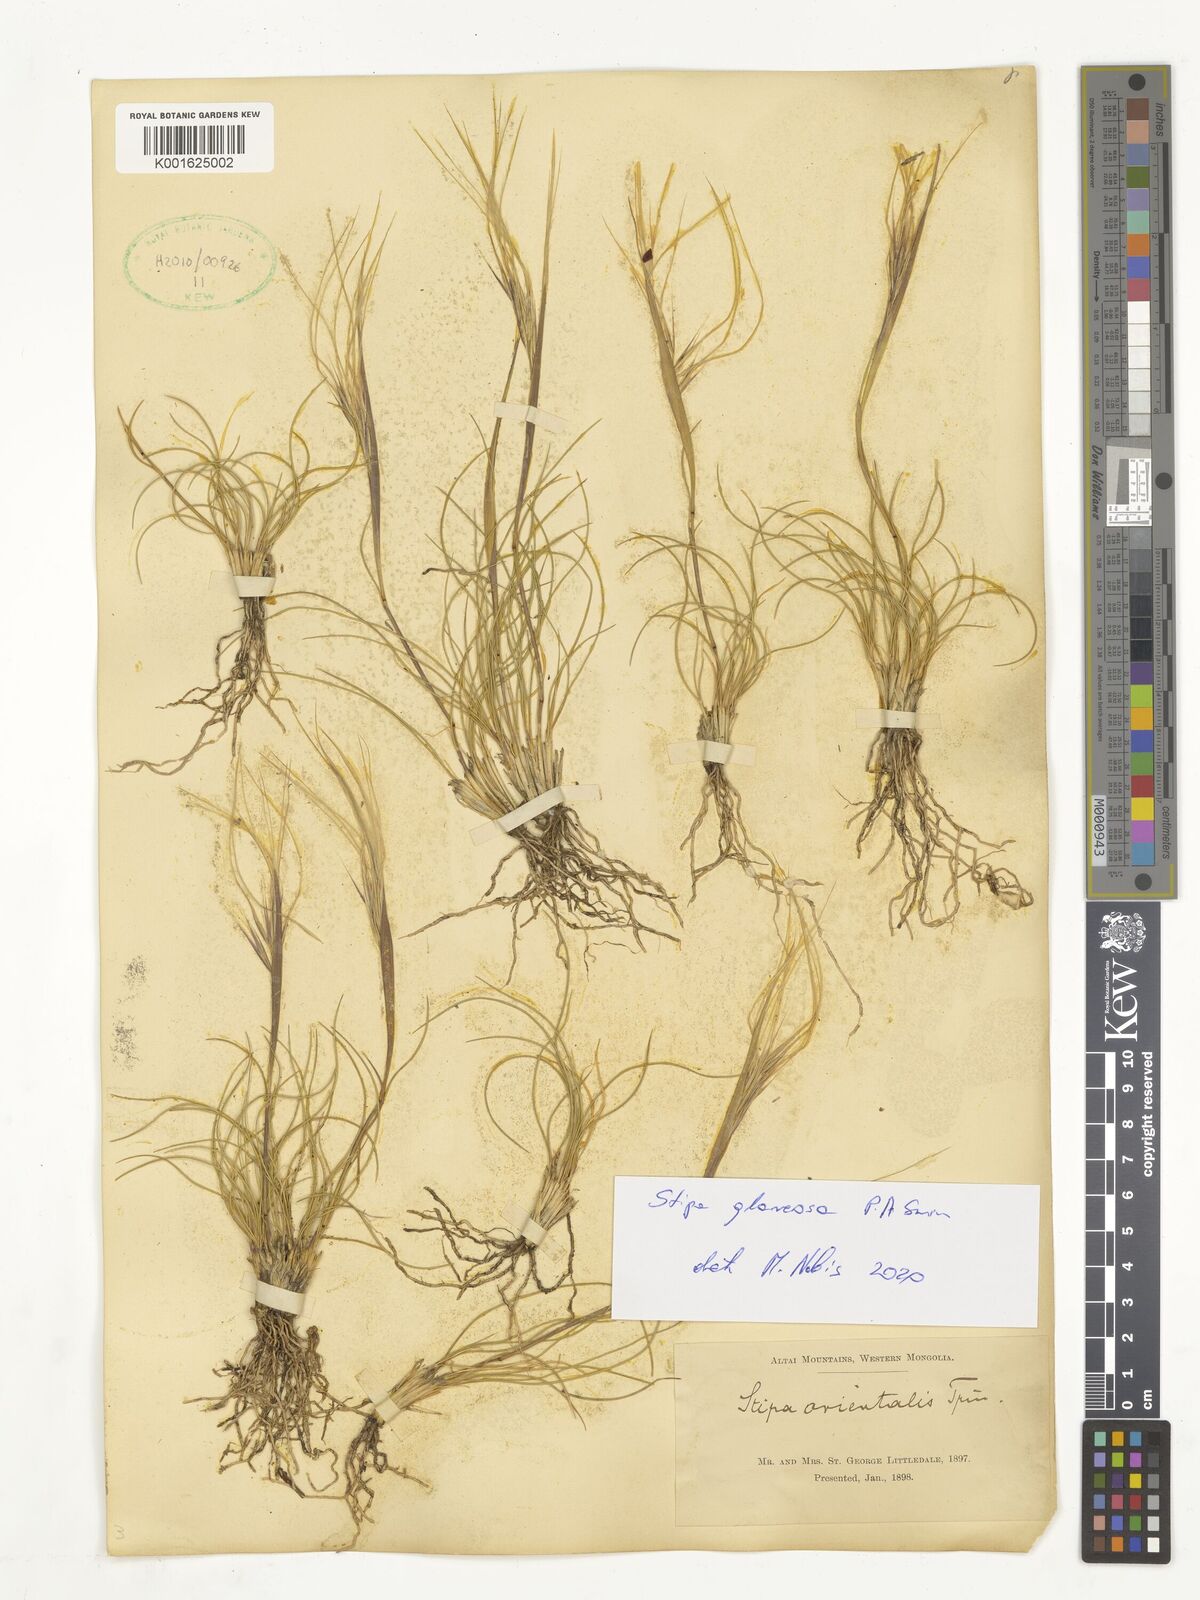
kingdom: Plantae
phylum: Tracheophyta
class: Liliopsida
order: Poales
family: Poaceae
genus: Stipa
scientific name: Stipa glareosa
